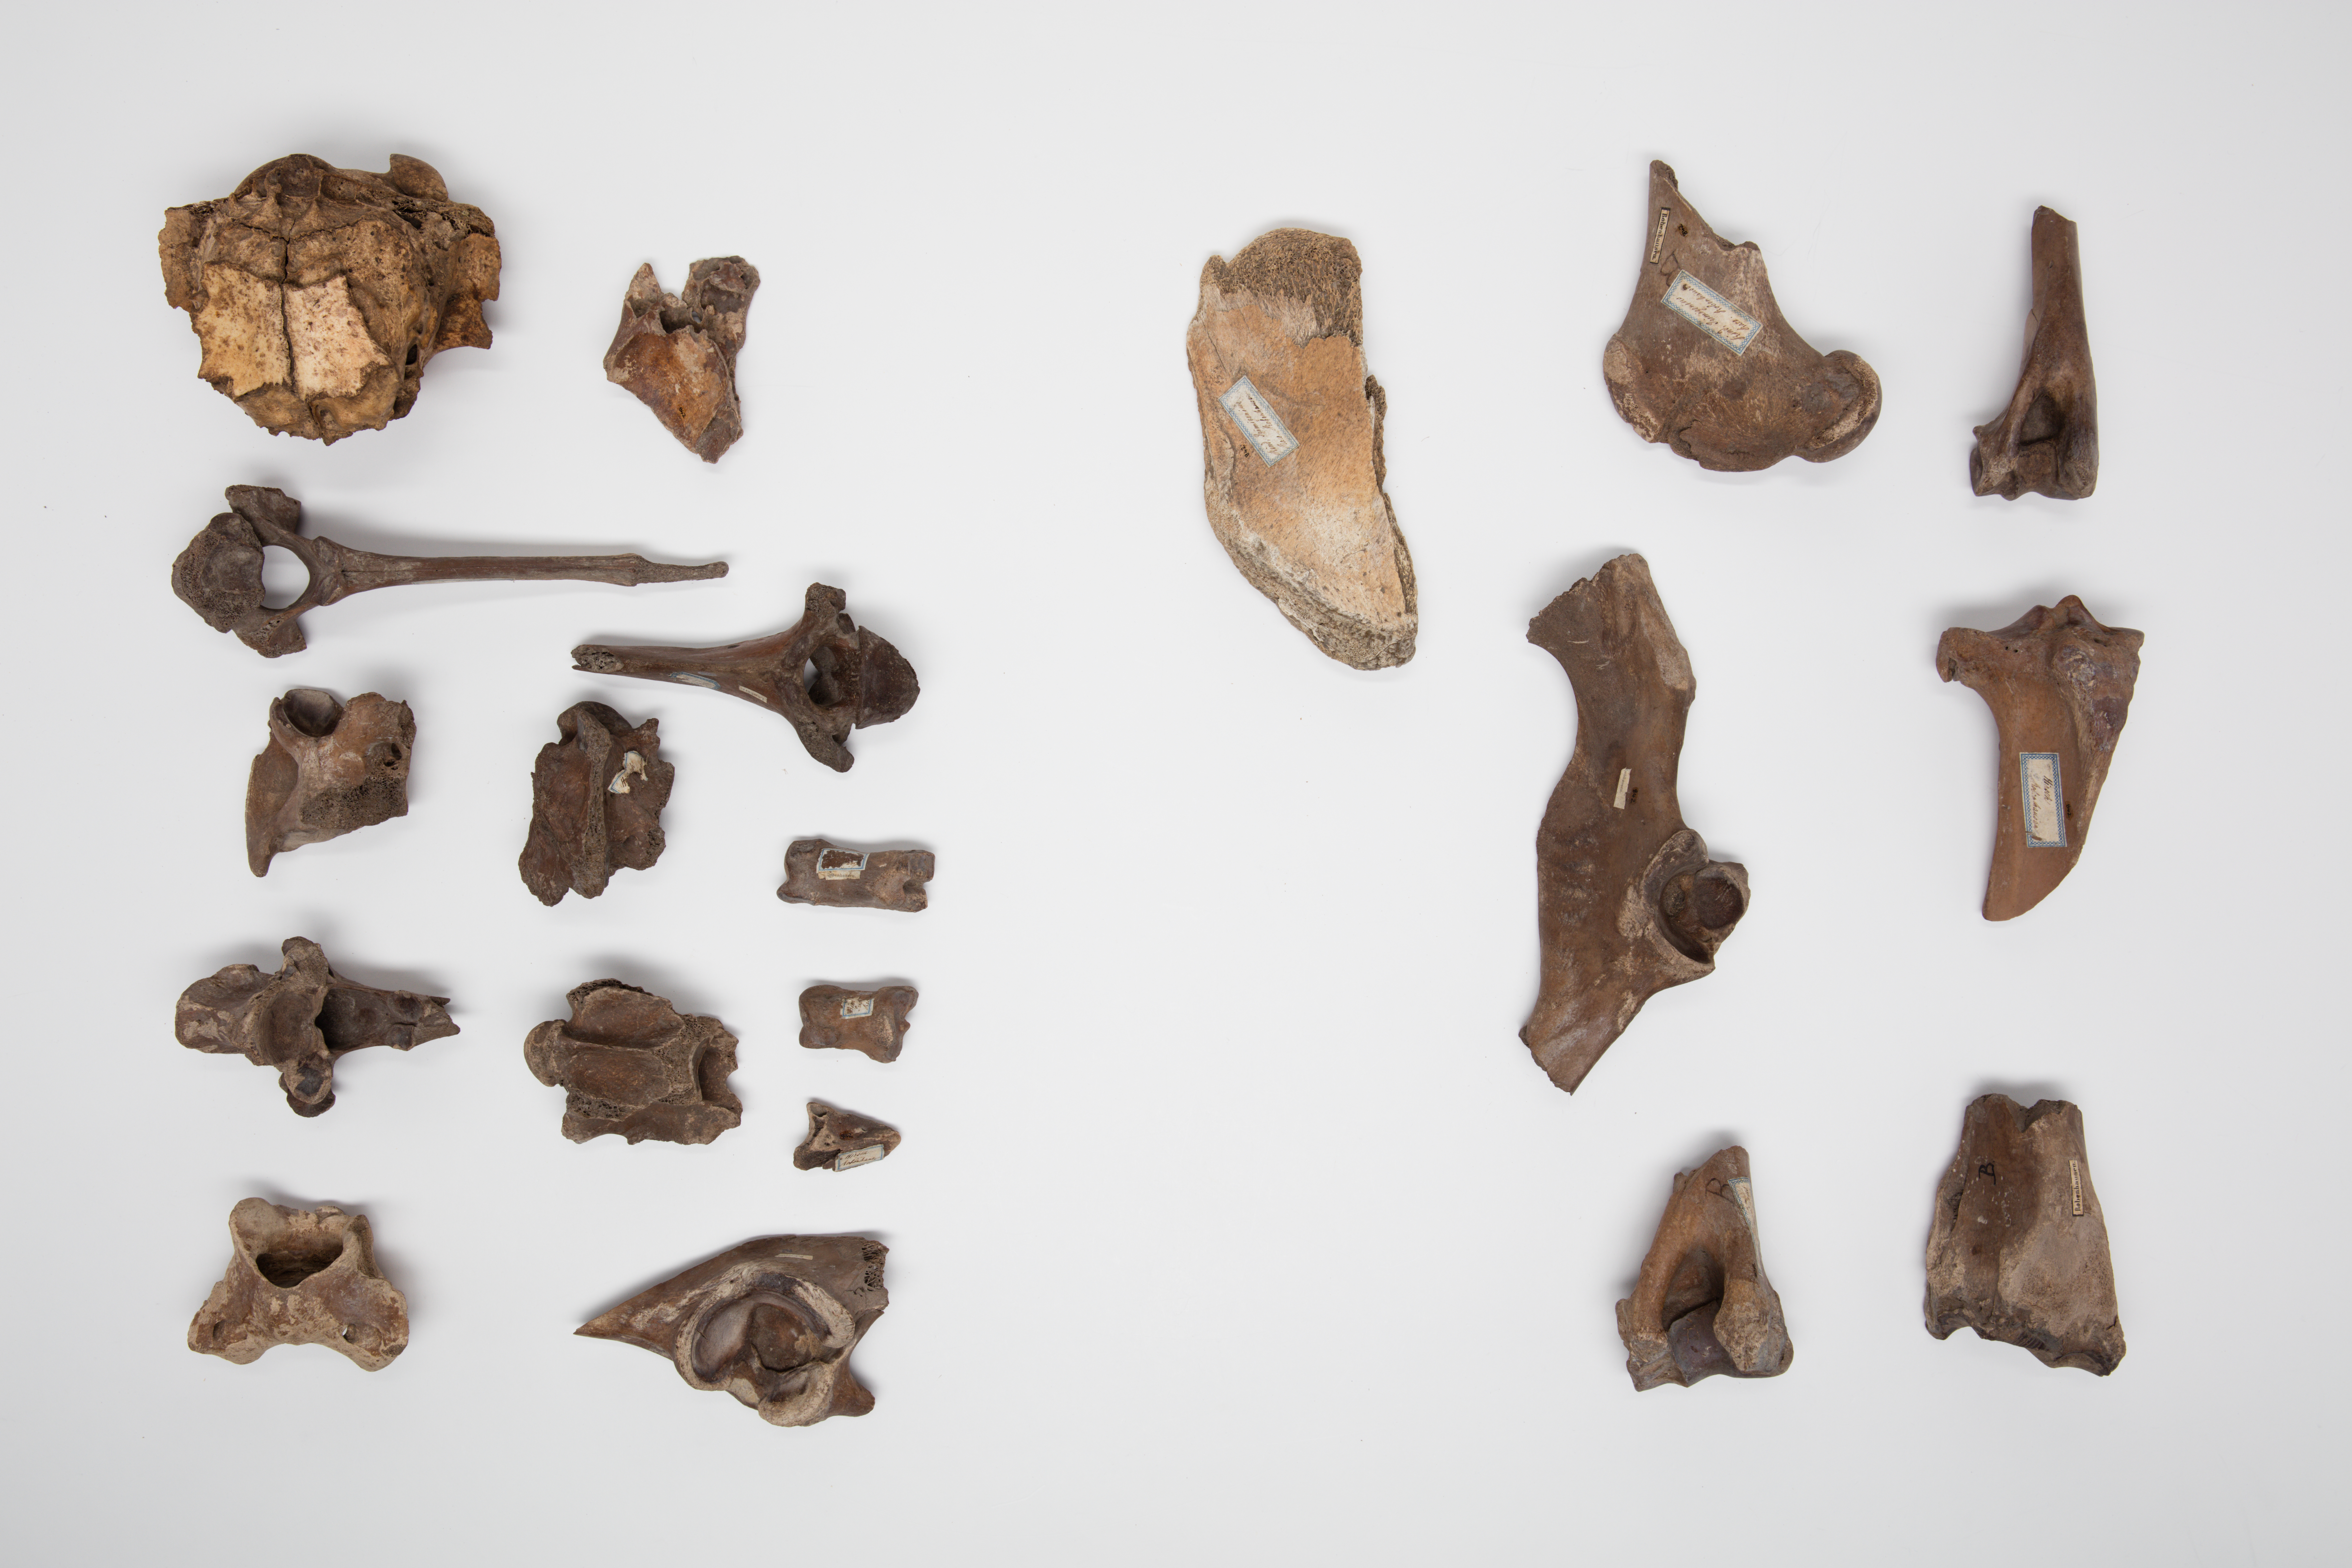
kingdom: Animalia
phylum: Chordata
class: Mammalia
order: Artiodactyla
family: Bovidae
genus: Bos
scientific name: Bos taurus
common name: Domesticated cattle
